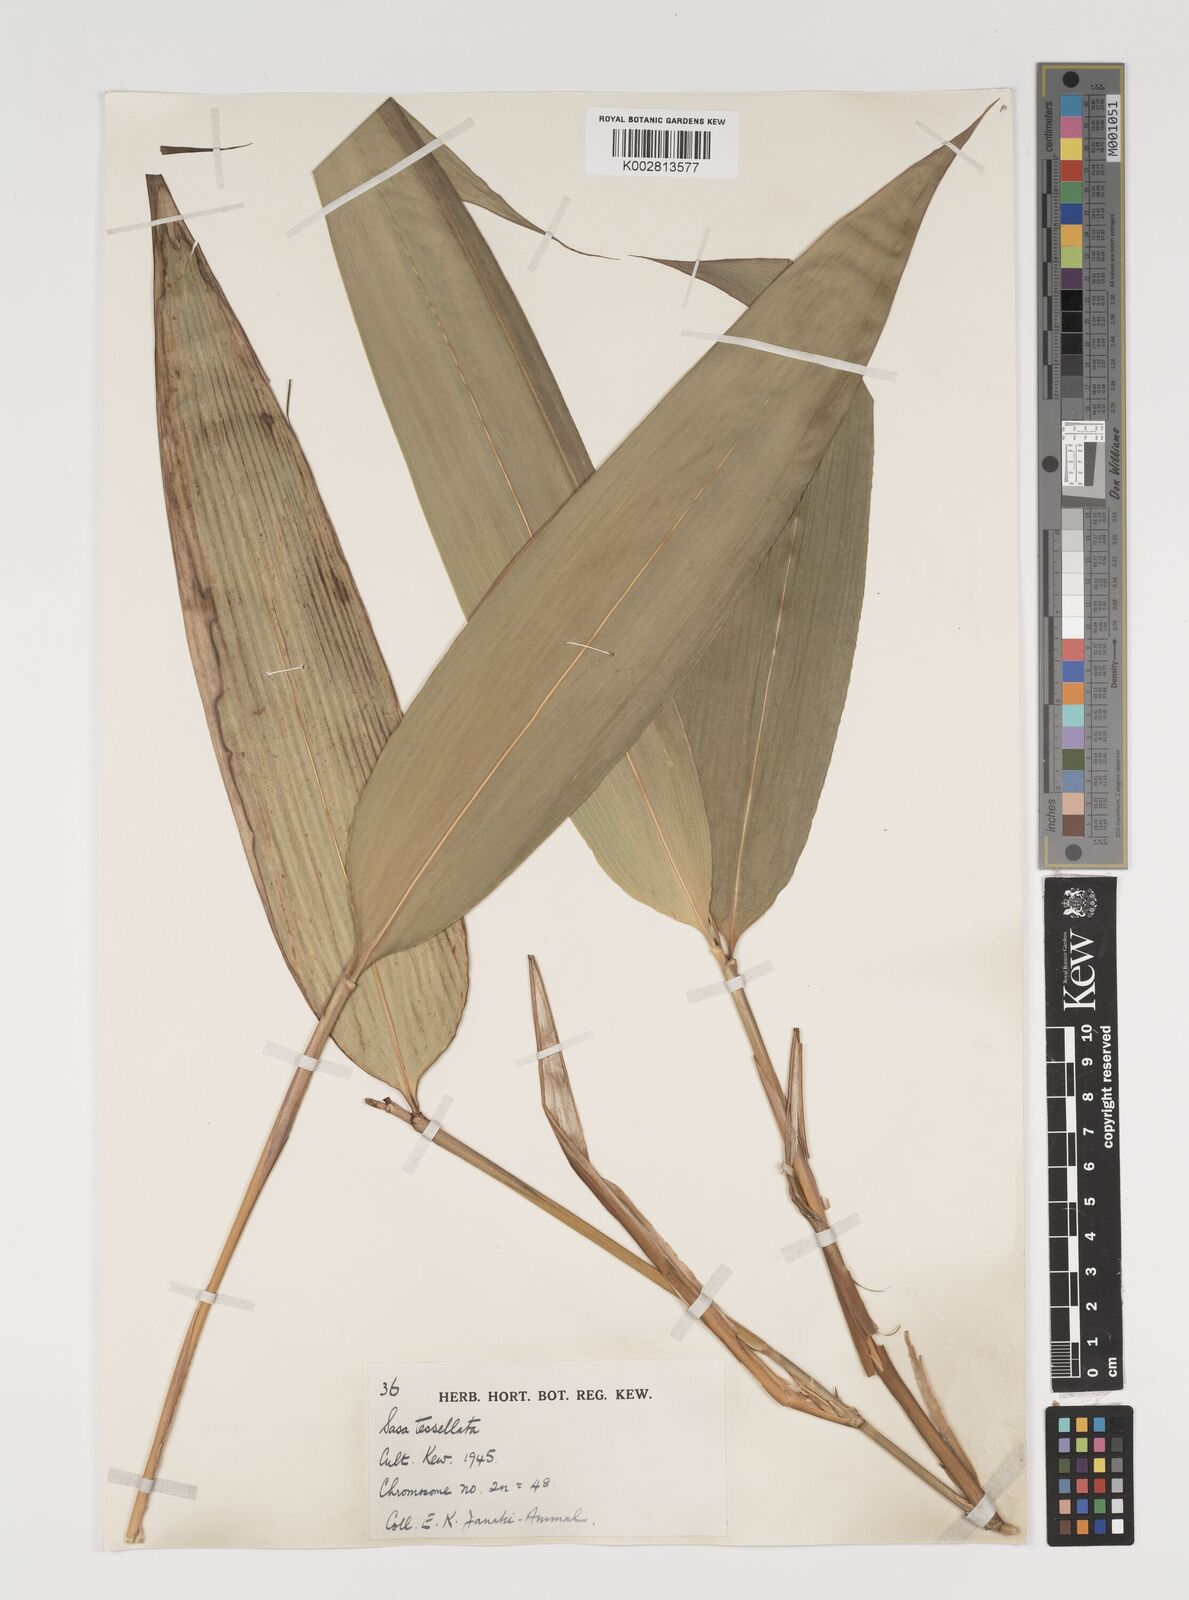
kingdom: Plantae
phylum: Tracheophyta
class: Liliopsida
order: Poales
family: Poaceae
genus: Indocalamus
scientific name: Indocalamus tessellatus
